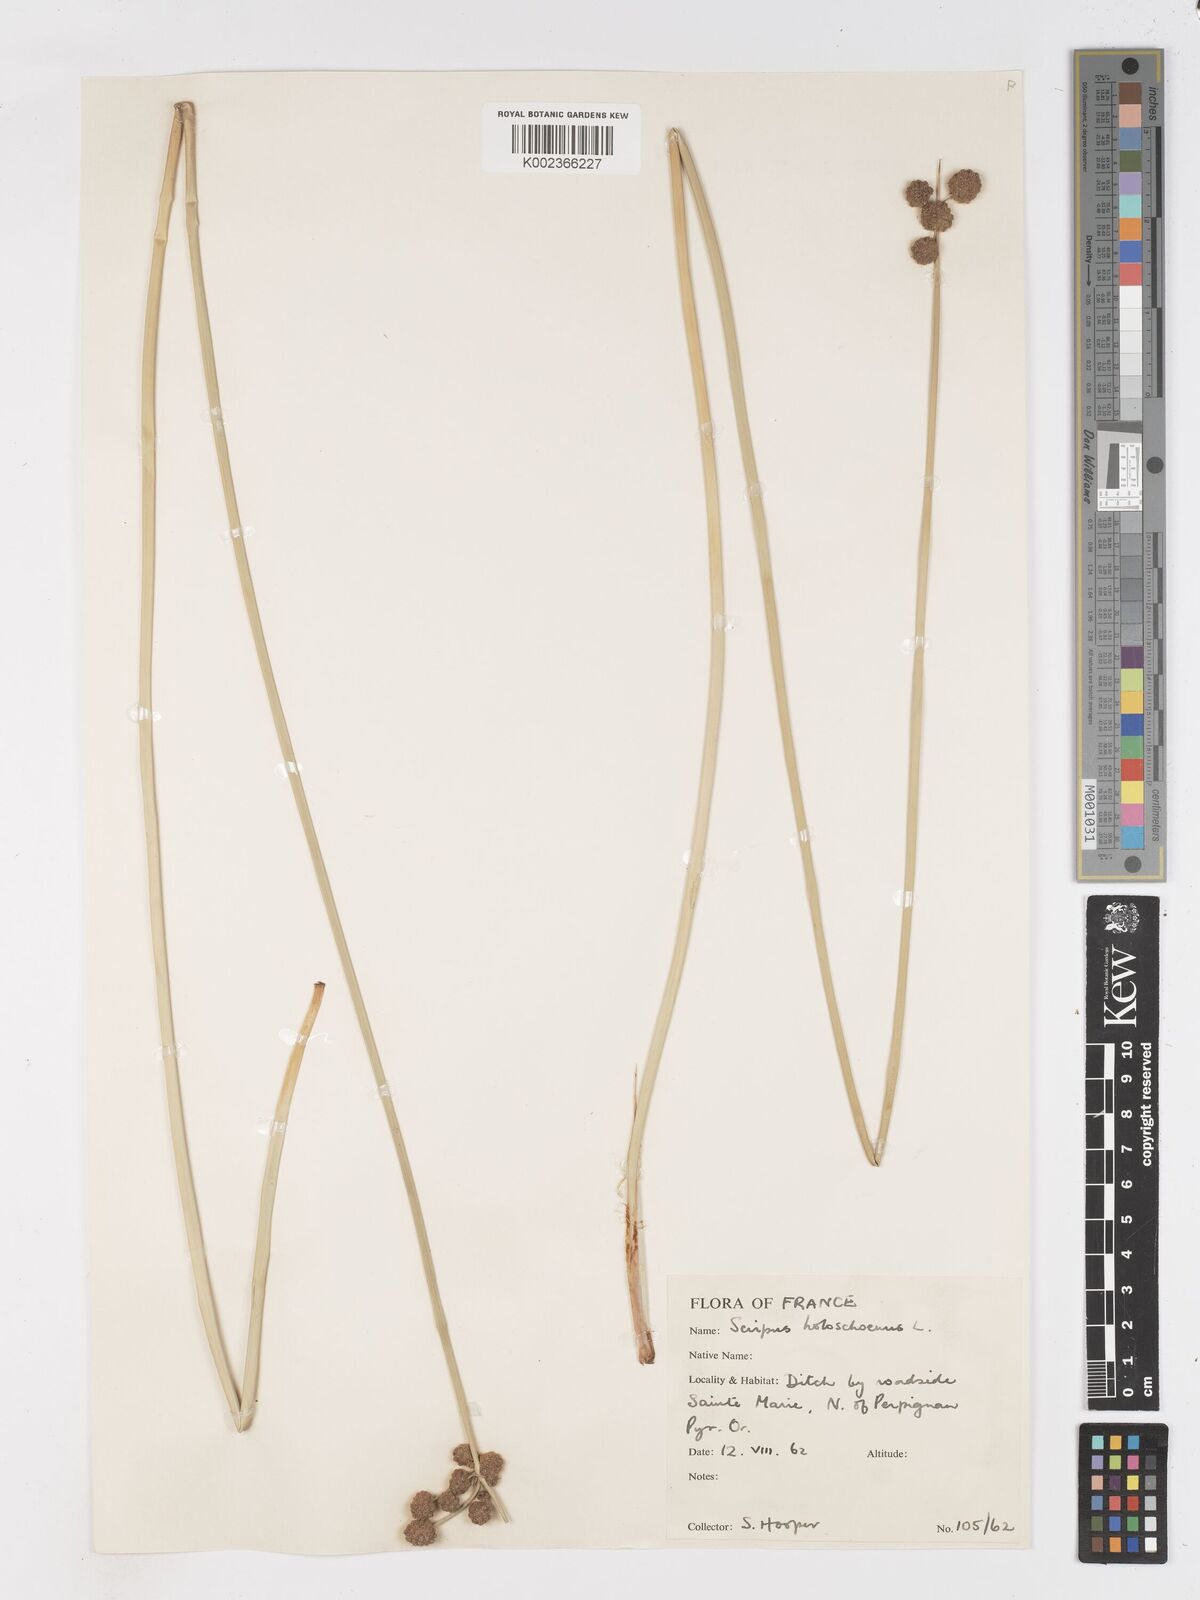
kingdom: Plantae
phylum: Tracheophyta
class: Liliopsida
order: Poales
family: Cyperaceae
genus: Scirpoides
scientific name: Scirpoides holoschoenus
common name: Round-headed club-rush
